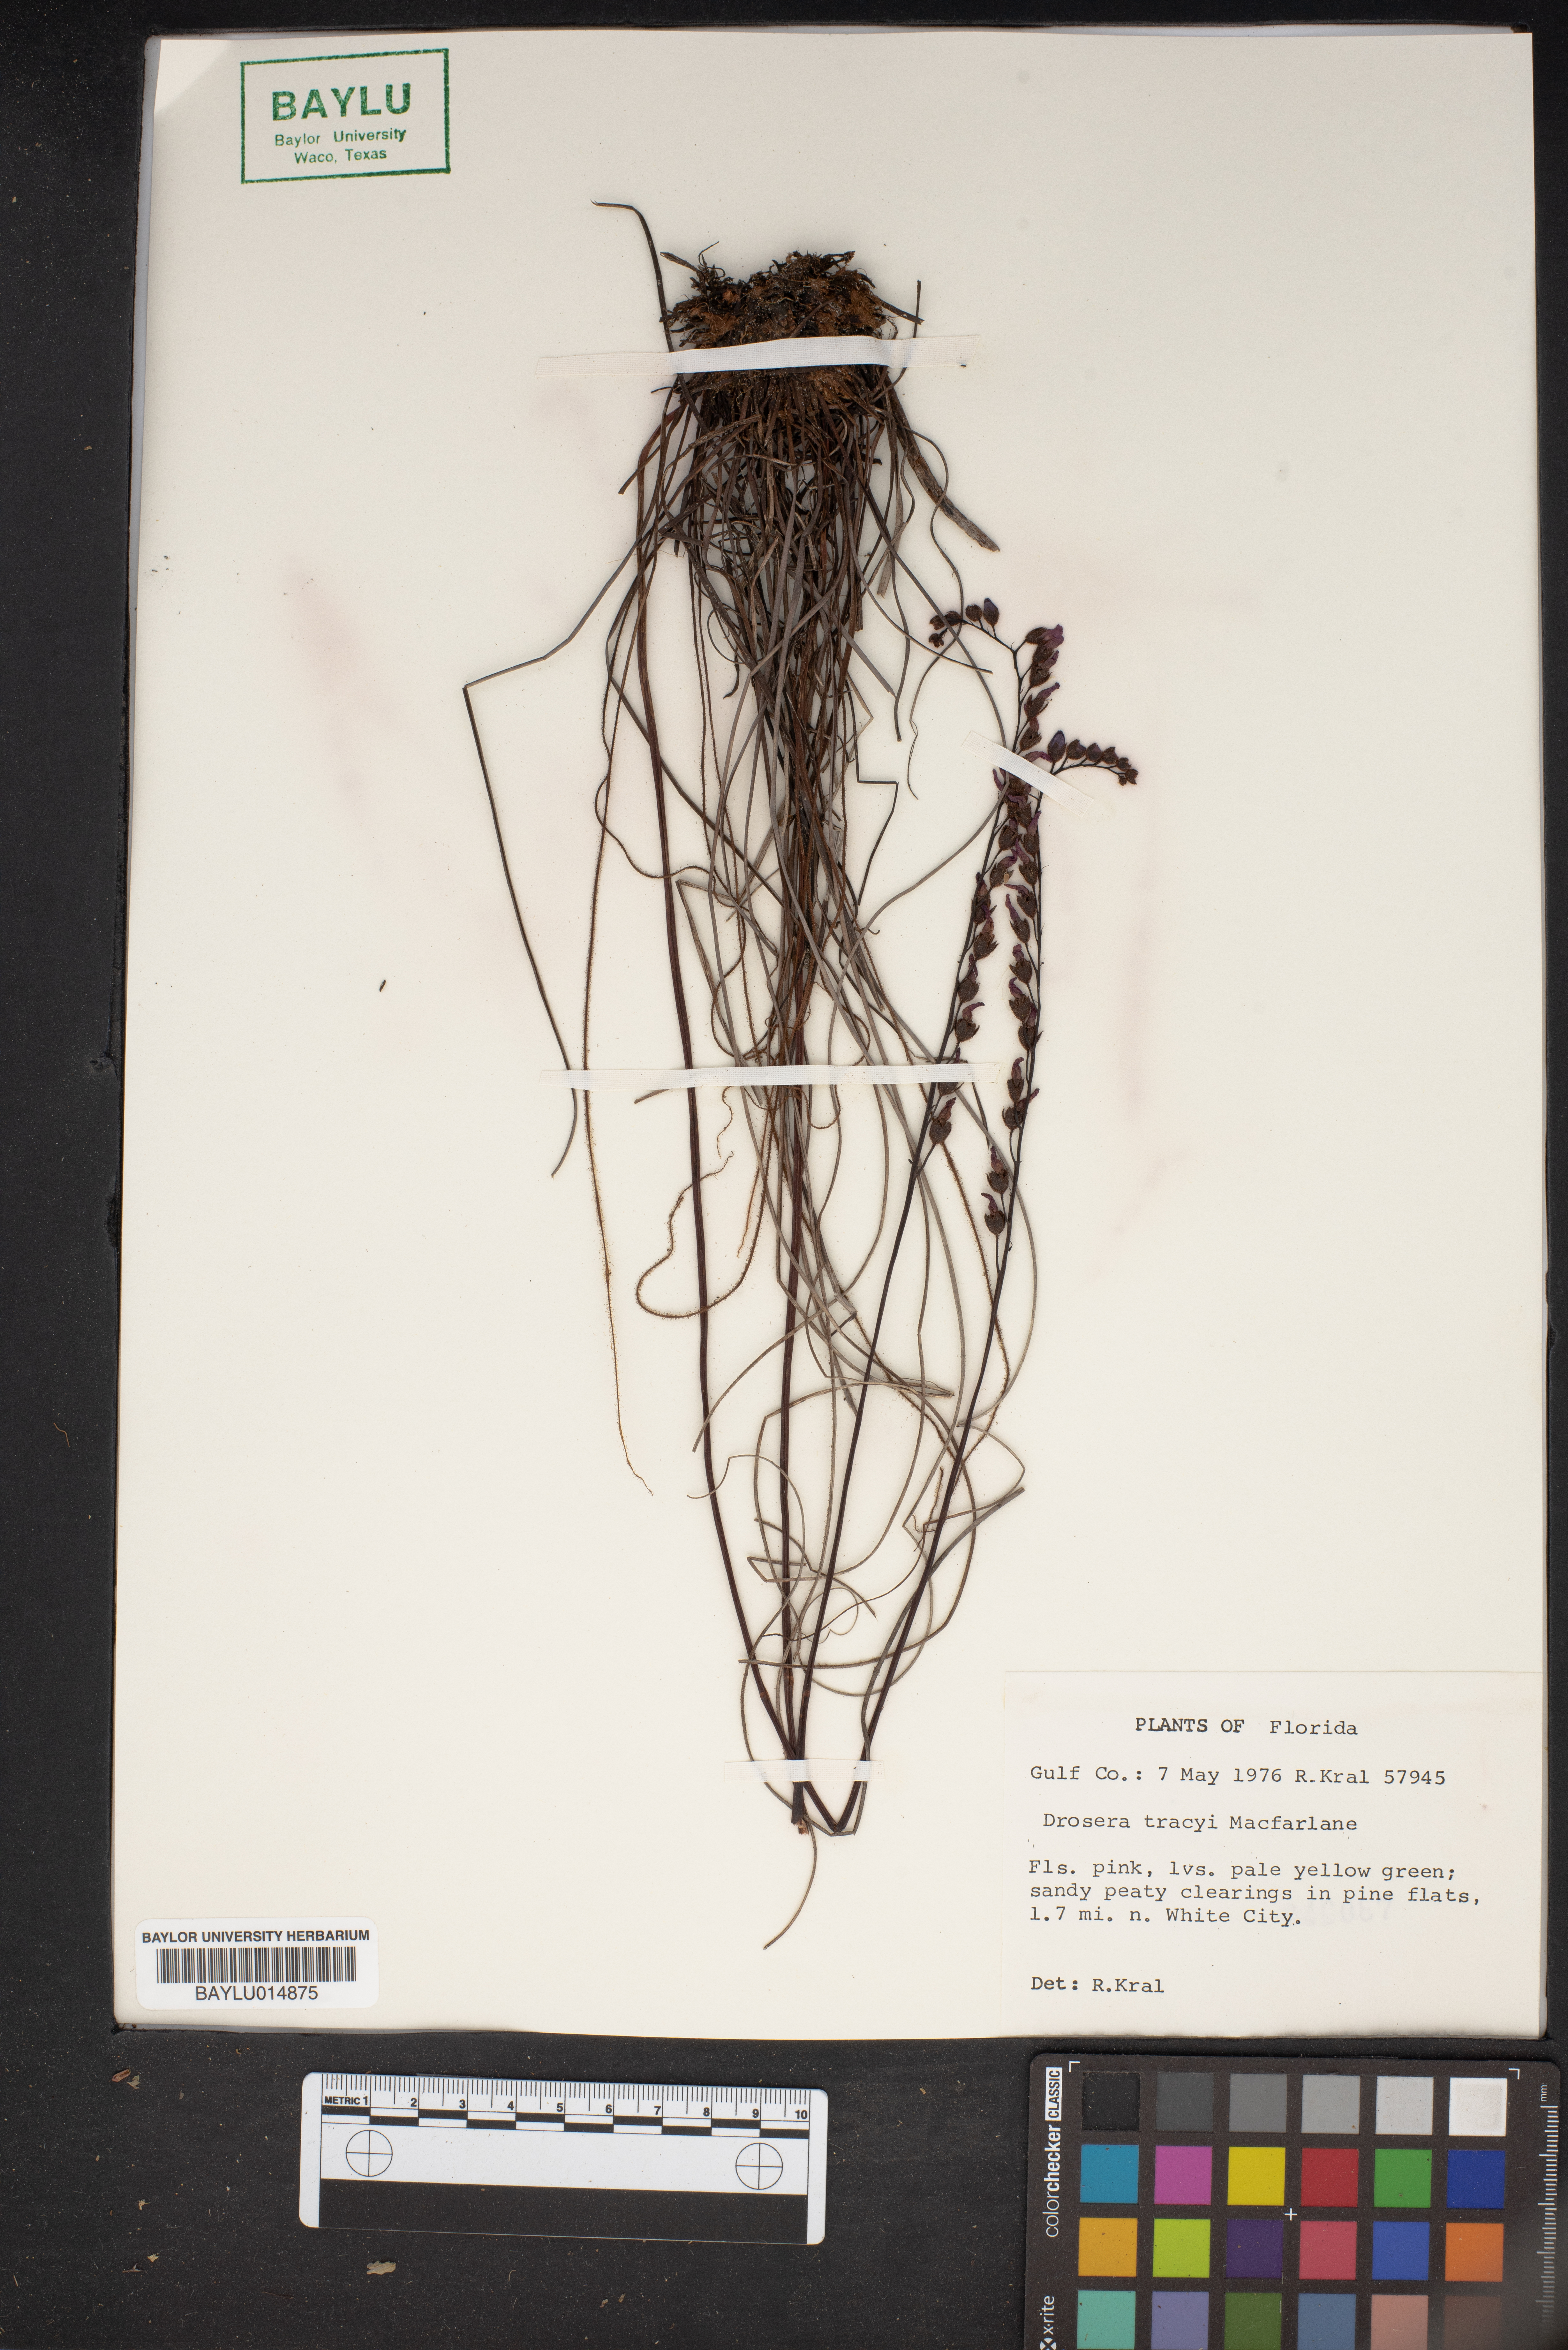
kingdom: Plantae
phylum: Tracheophyta
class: Magnoliopsida
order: Caryophyllales
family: Droseraceae
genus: Drosera
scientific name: Drosera filiformis
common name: Dew-thread
